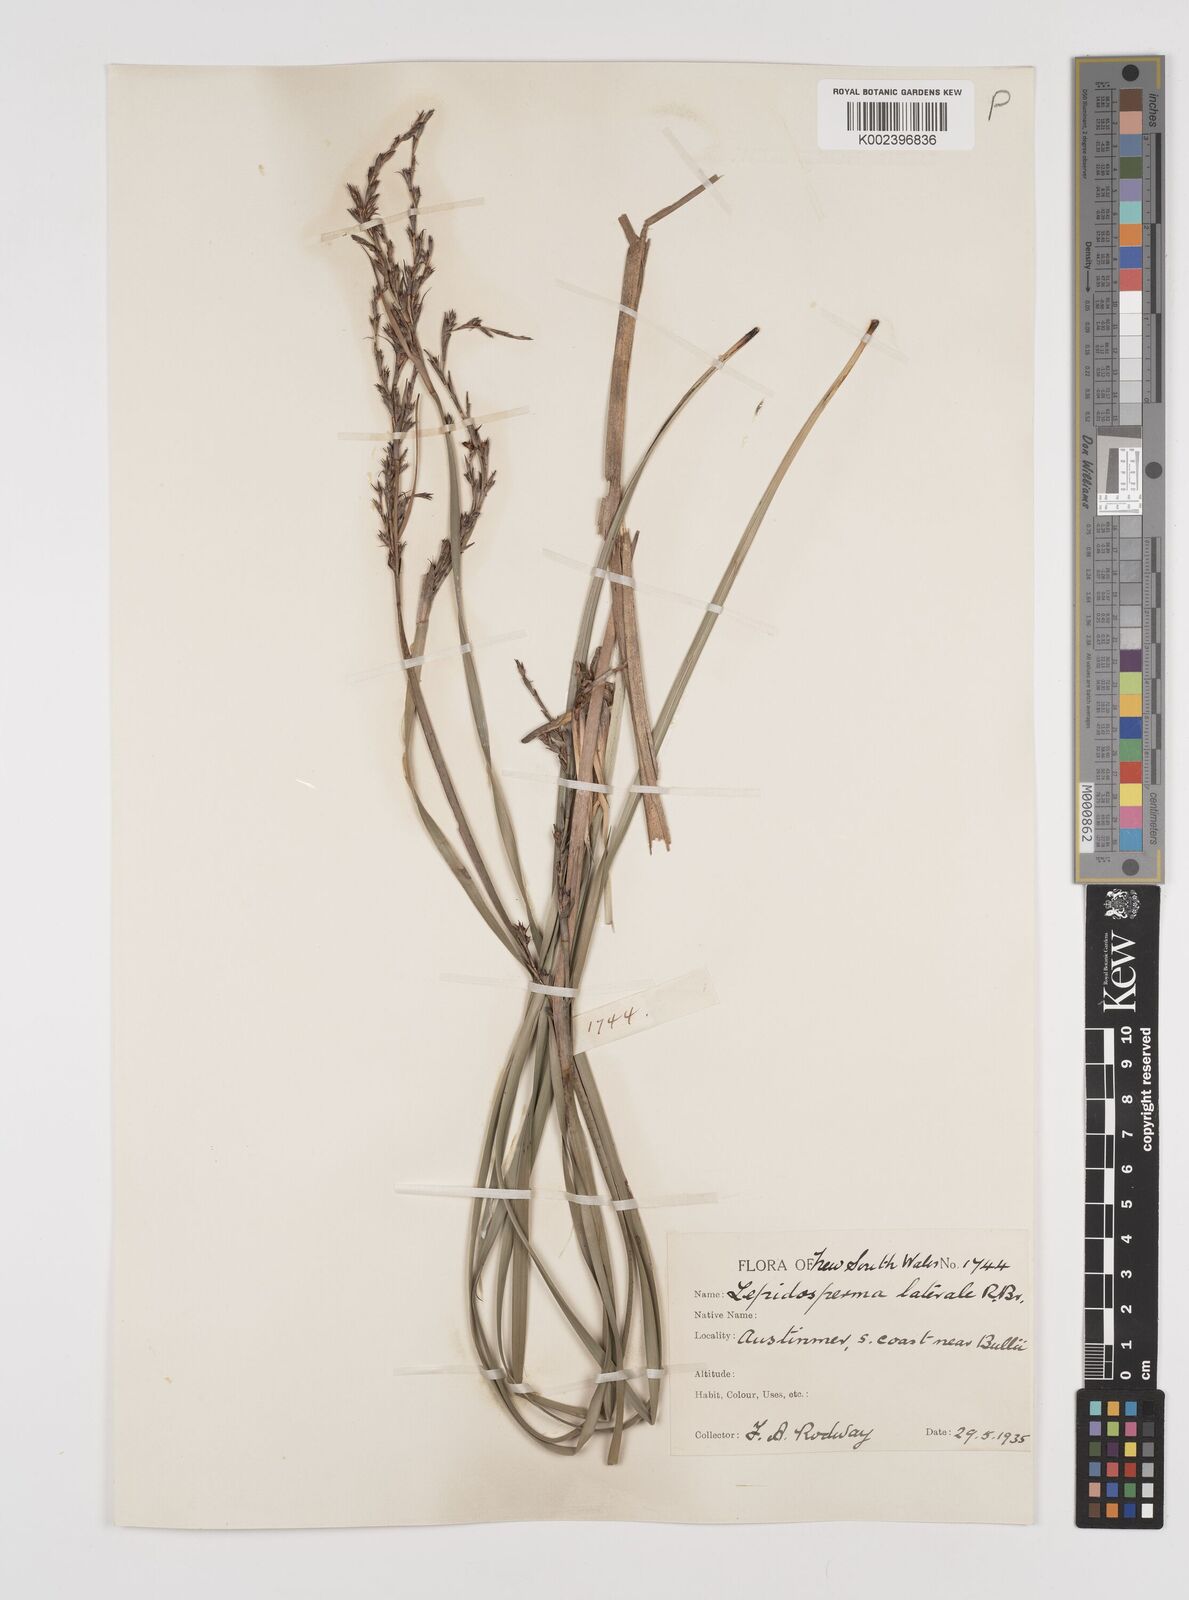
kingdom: Plantae
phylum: Tracheophyta
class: Liliopsida
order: Poales
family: Cyperaceae
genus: Lepidosperma
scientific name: Lepidosperma laterale
